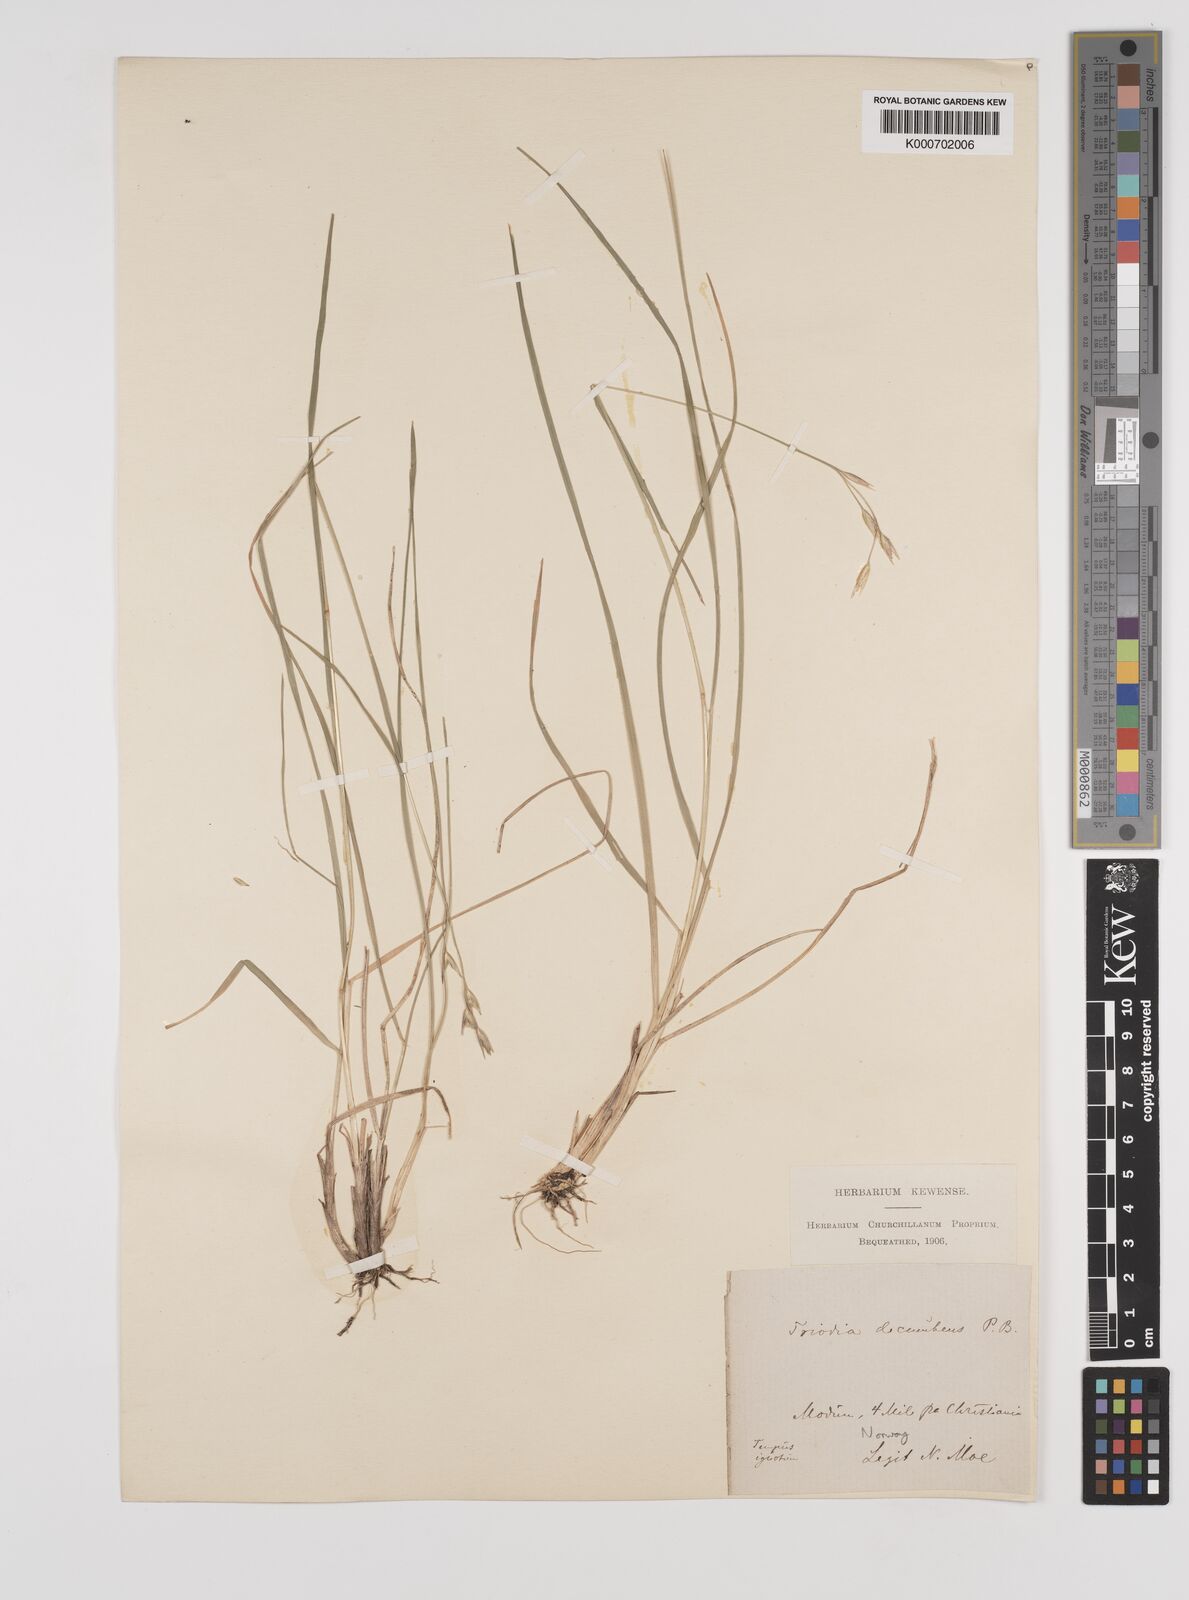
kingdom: Plantae
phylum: Tracheophyta
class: Liliopsida
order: Poales
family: Poaceae
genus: Danthonia
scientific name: Danthonia decumbens
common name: Common heathgrass
